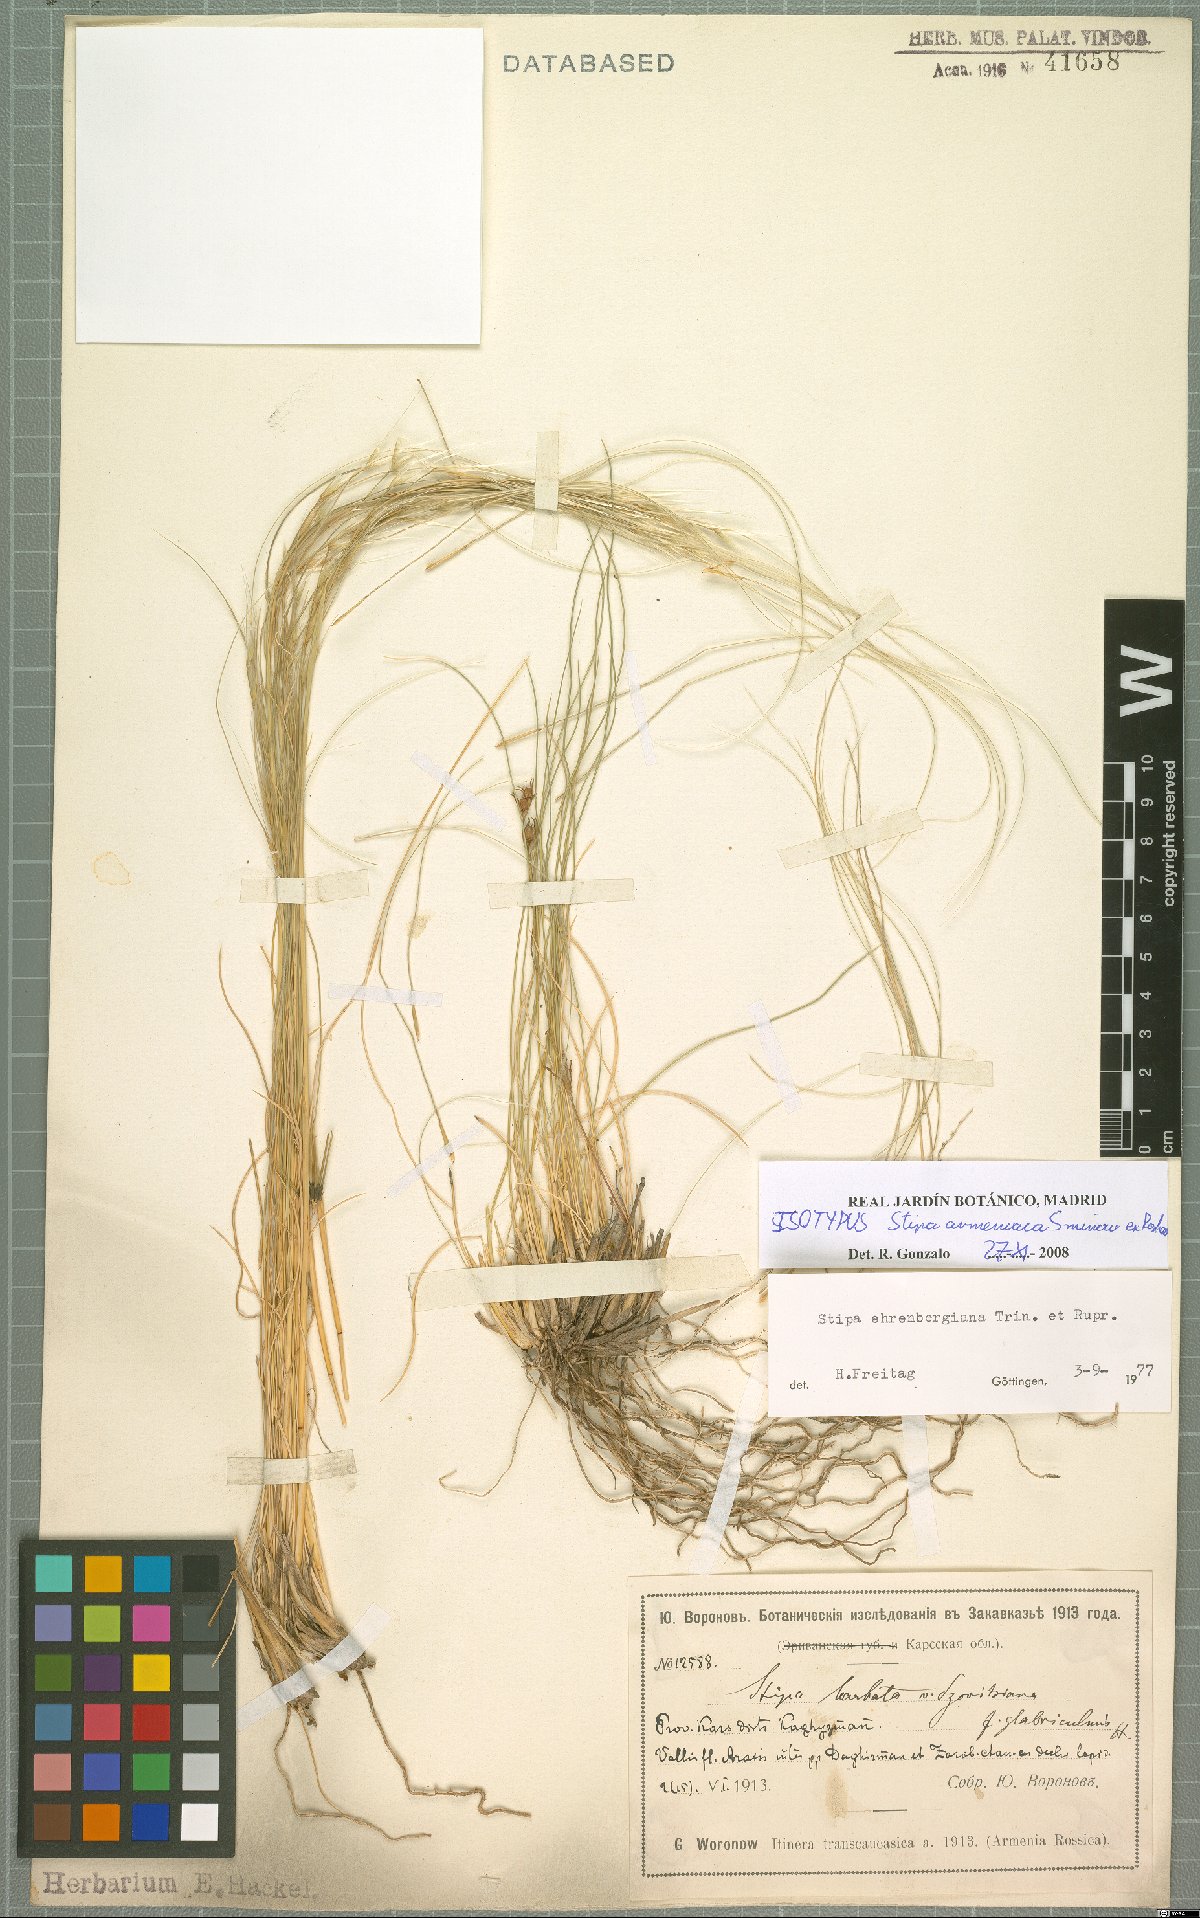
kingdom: Plantae
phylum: Tracheophyta
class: Liliopsida
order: Poales
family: Poaceae
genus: Stipa
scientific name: Stipa ehrenbergiana
